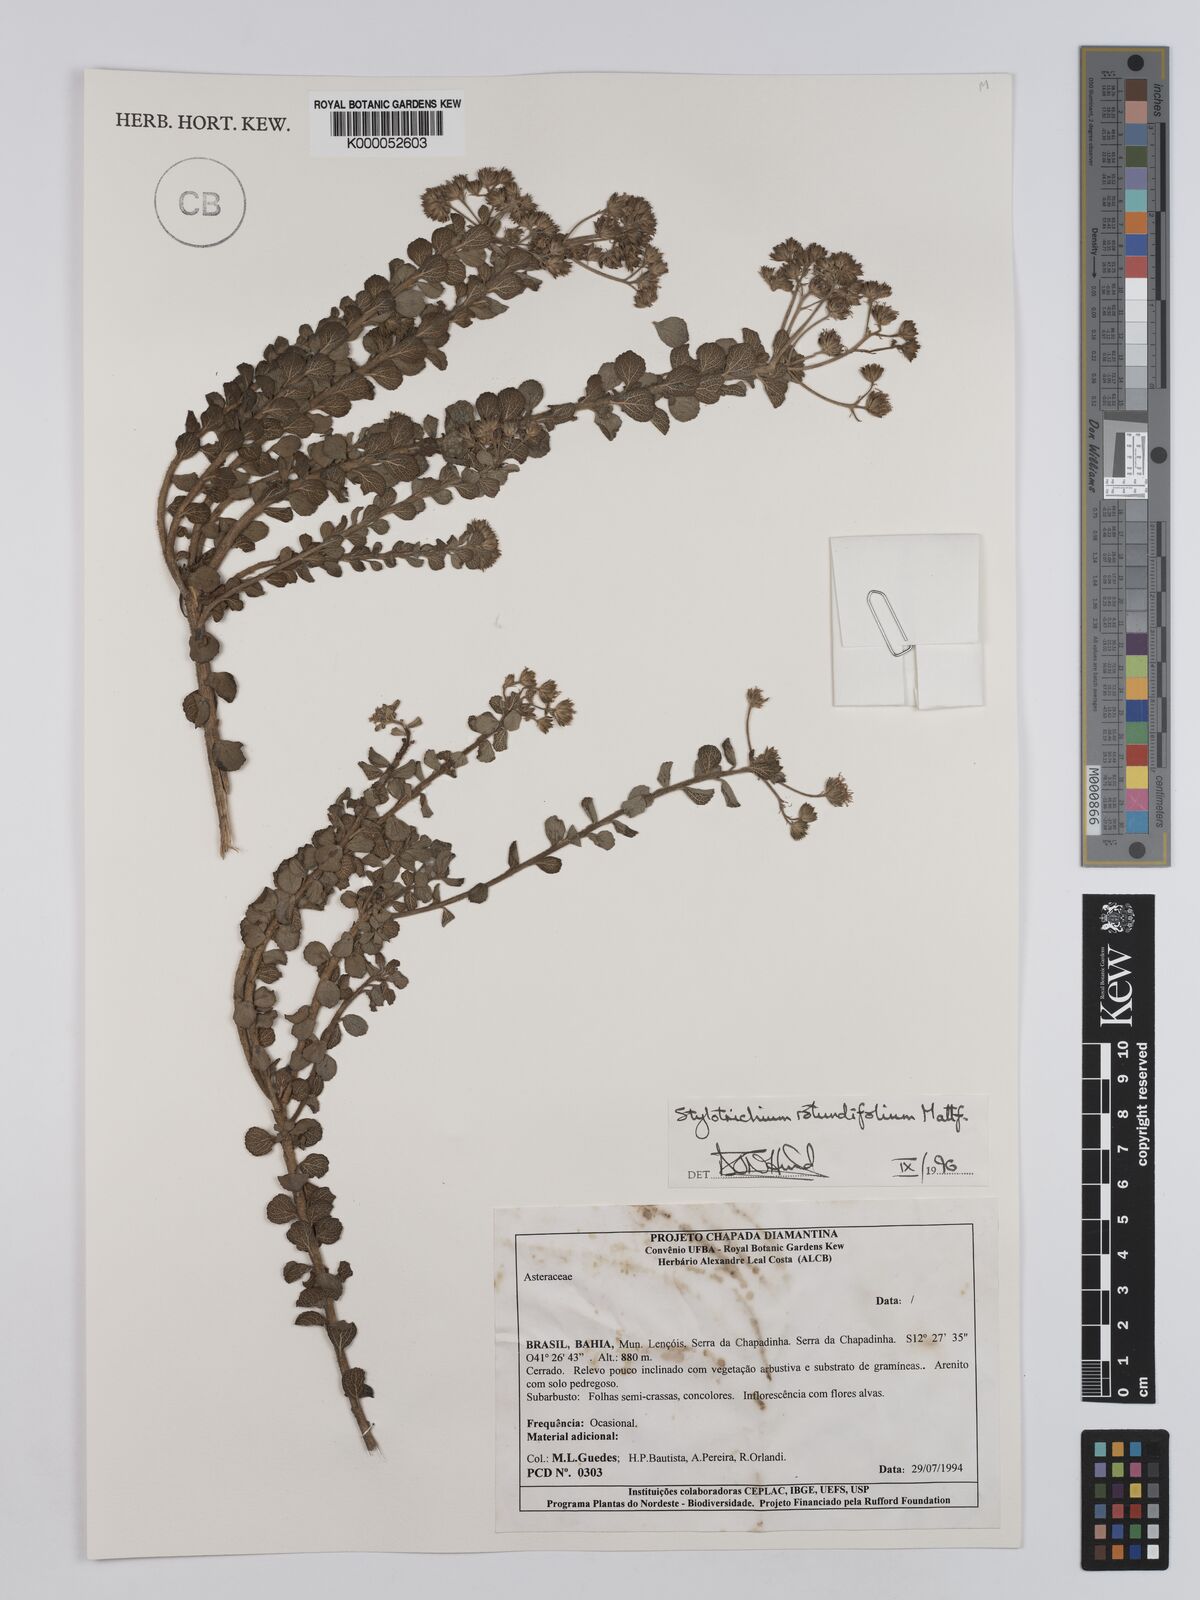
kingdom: Plantae
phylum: Tracheophyta
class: Magnoliopsida
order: Asterales
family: Asteraceae
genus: Stylotrichium
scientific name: Stylotrichium rotundifolium
